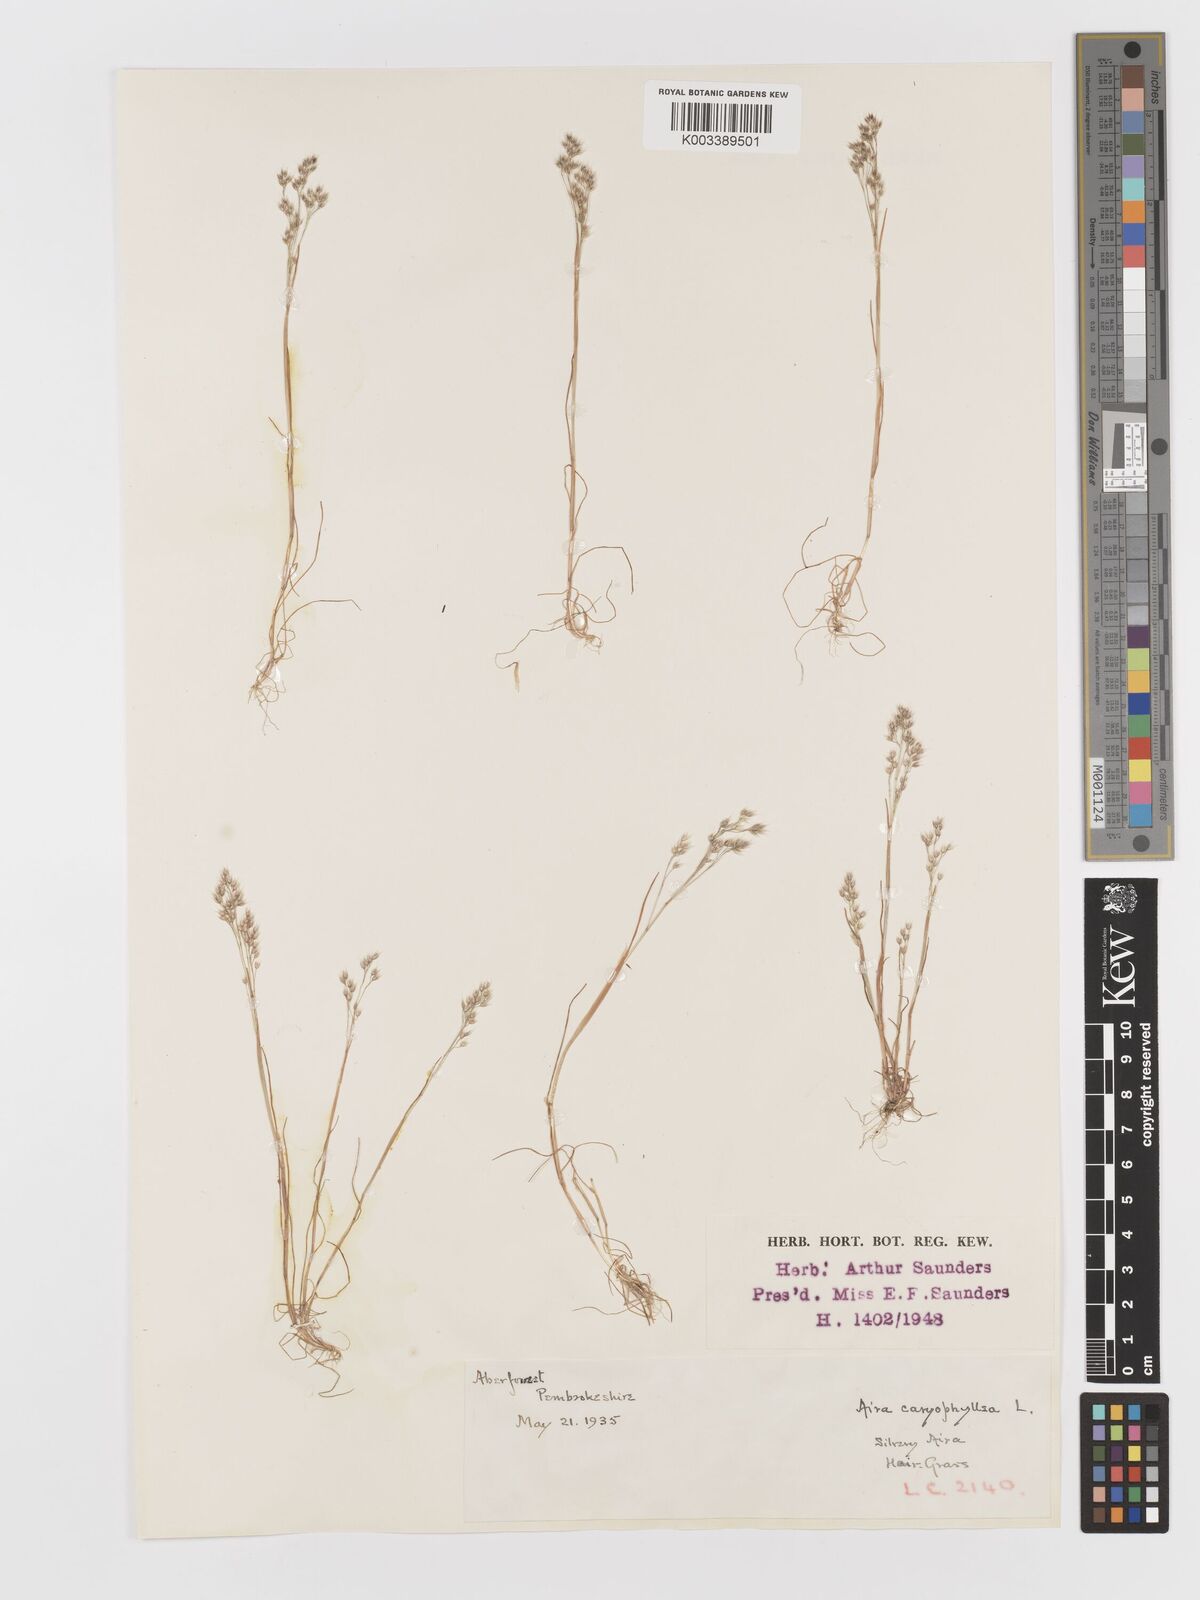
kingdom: Plantae
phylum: Tracheophyta
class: Liliopsida
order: Poales
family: Poaceae
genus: Aira
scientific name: Aira caryophyllea
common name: Silver hairgrass
